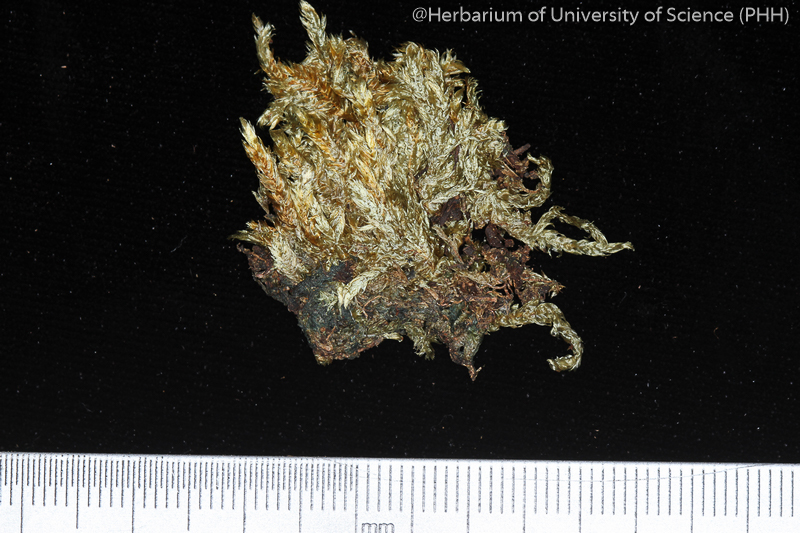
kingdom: Plantae
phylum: Bryophyta
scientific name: Bryophyta
